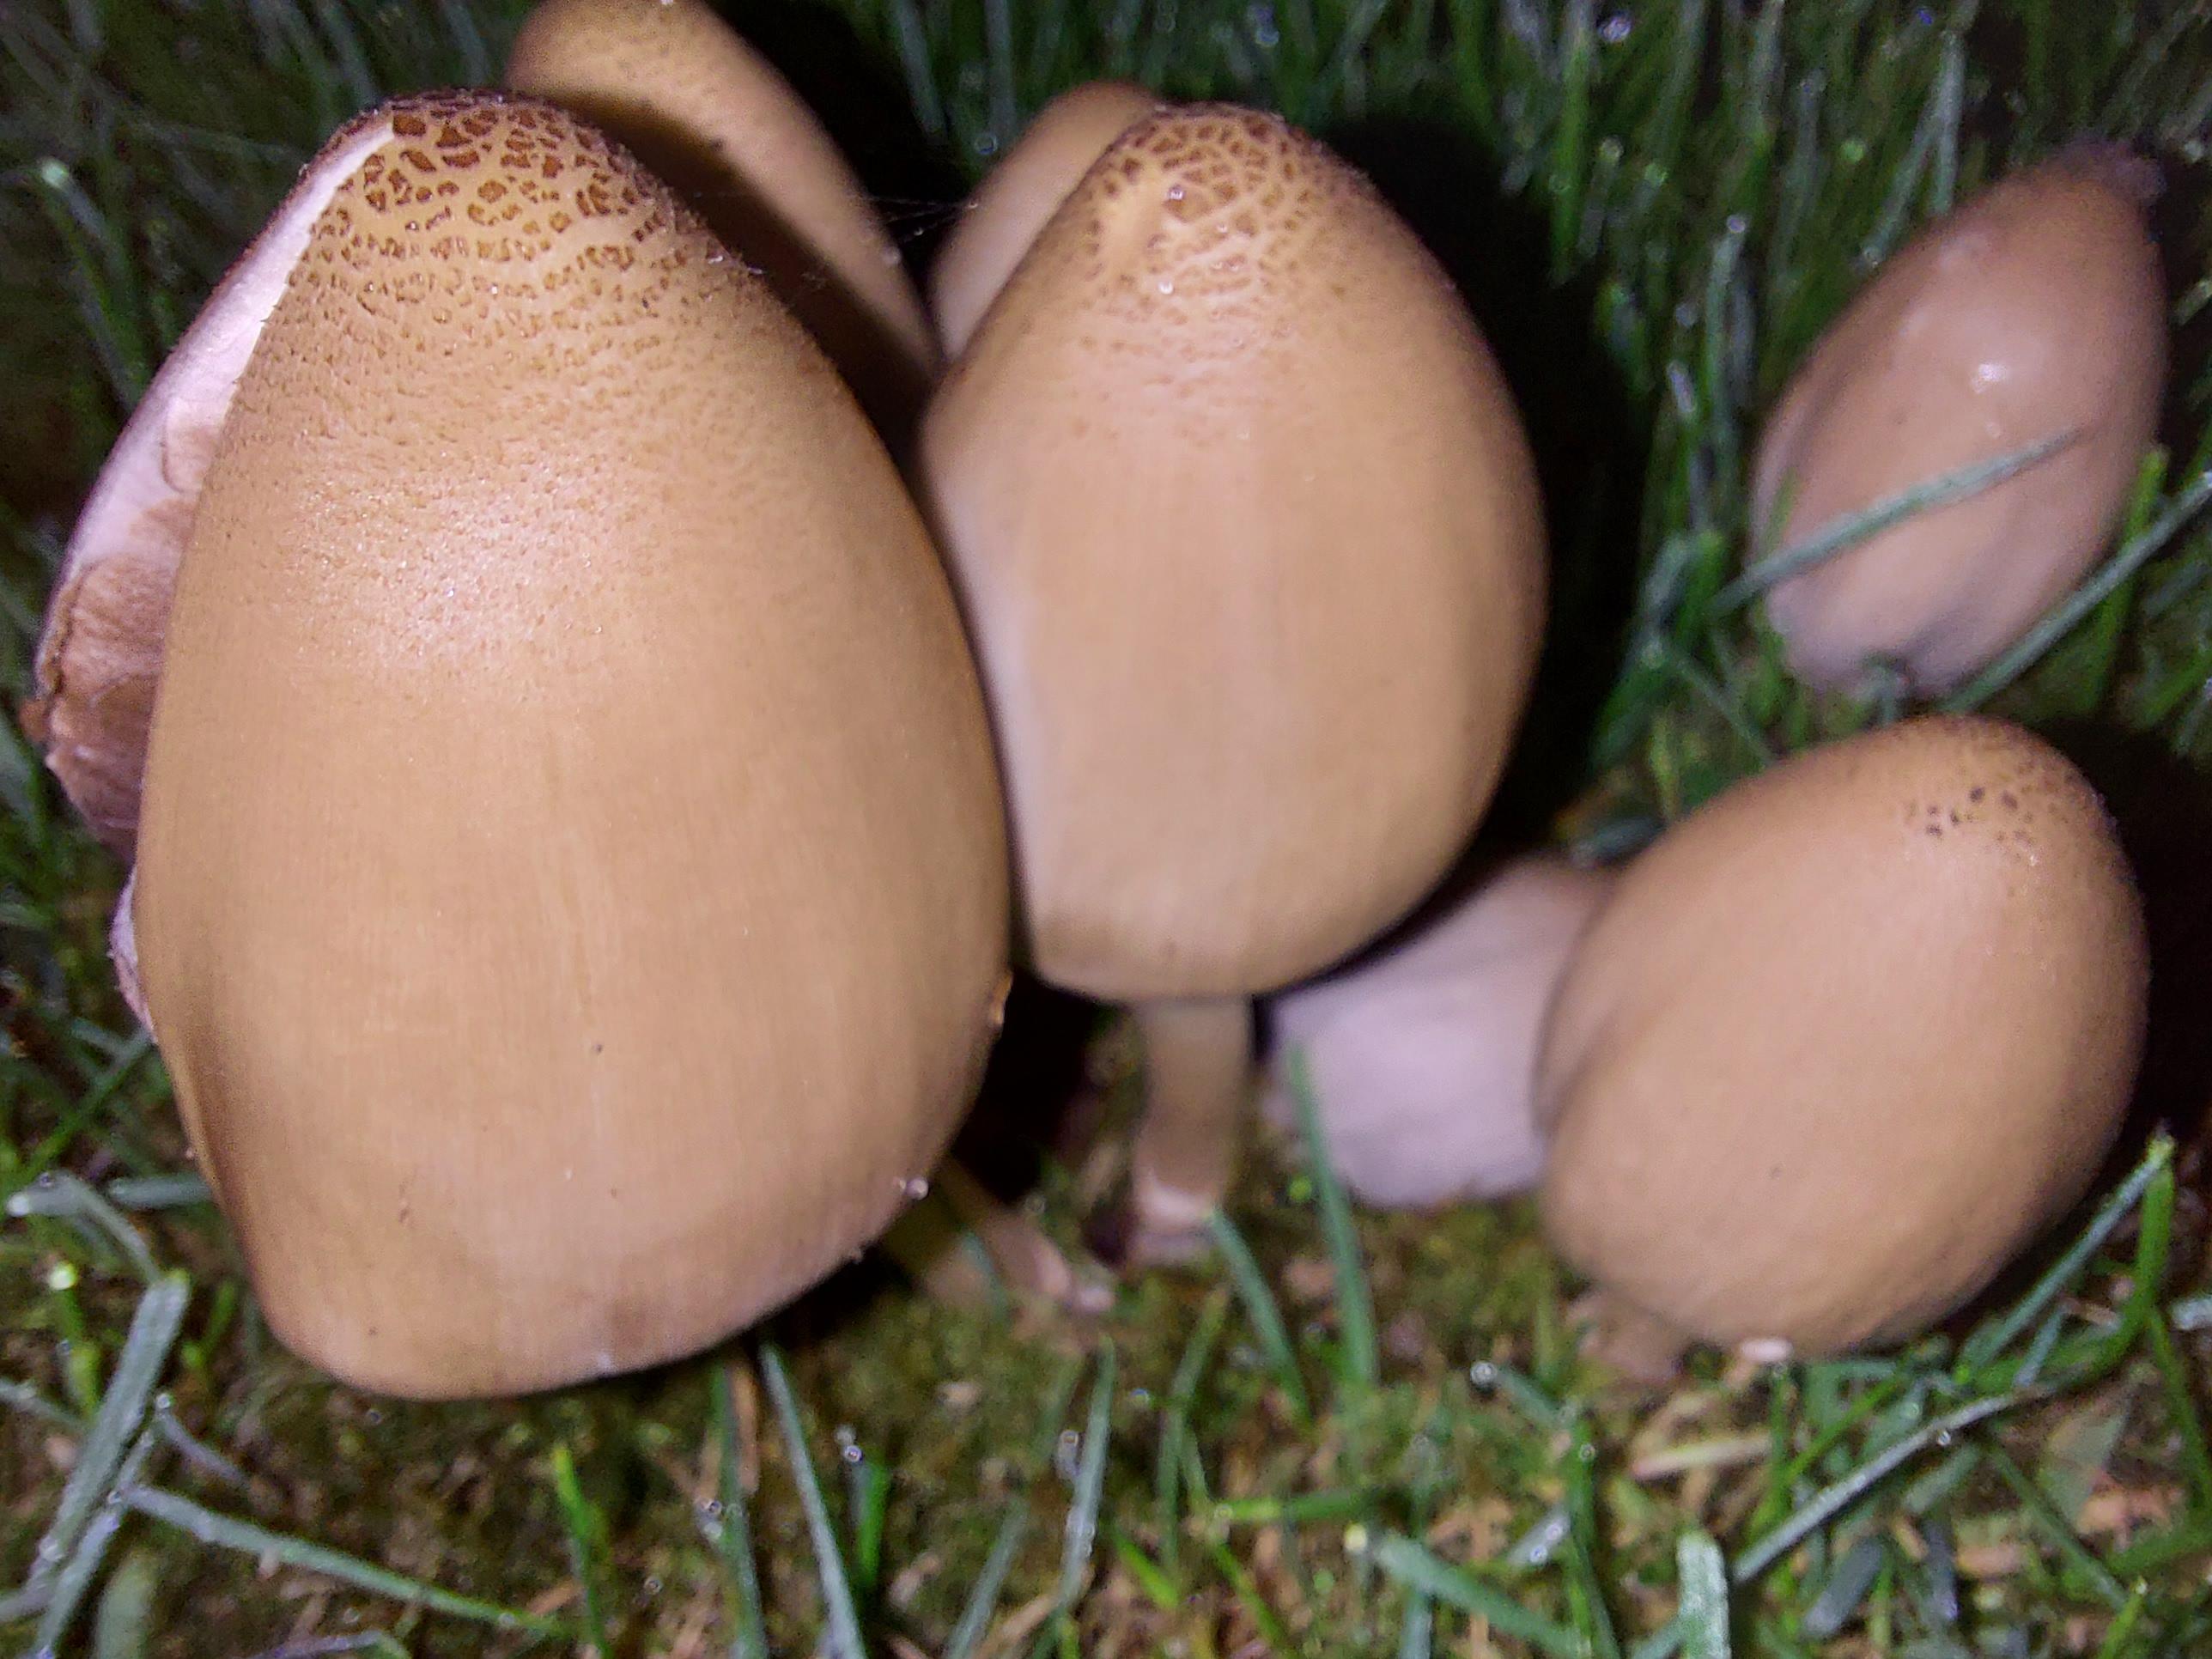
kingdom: Fungi
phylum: Basidiomycota
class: Agaricomycetes
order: Agaricales
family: Psathyrellaceae
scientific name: Psathyrellaceae
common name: mørkhatfamilien
